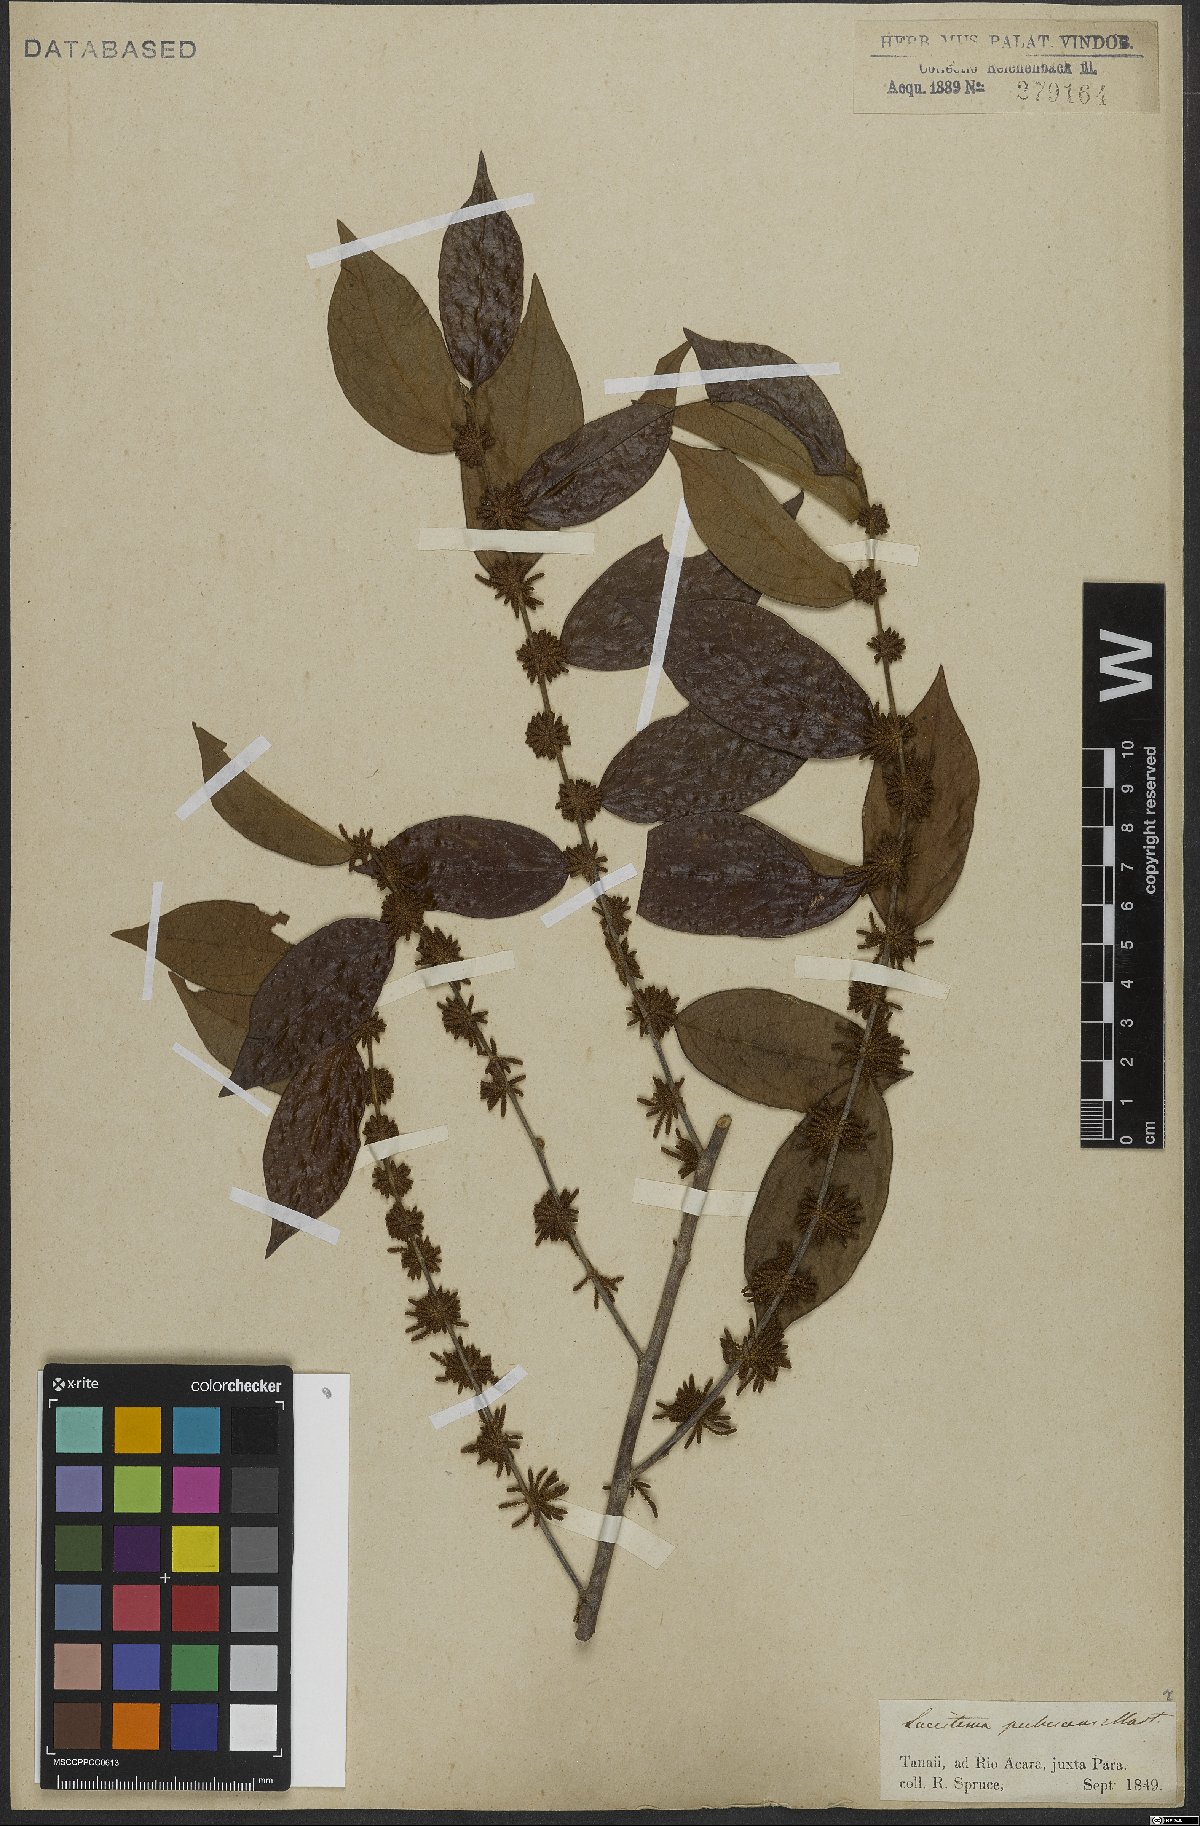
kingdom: Plantae
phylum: Tracheophyta
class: Magnoliopsida
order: Malpighiales
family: Lacistemataceae
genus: Lacistema
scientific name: Lacistema pubescens
